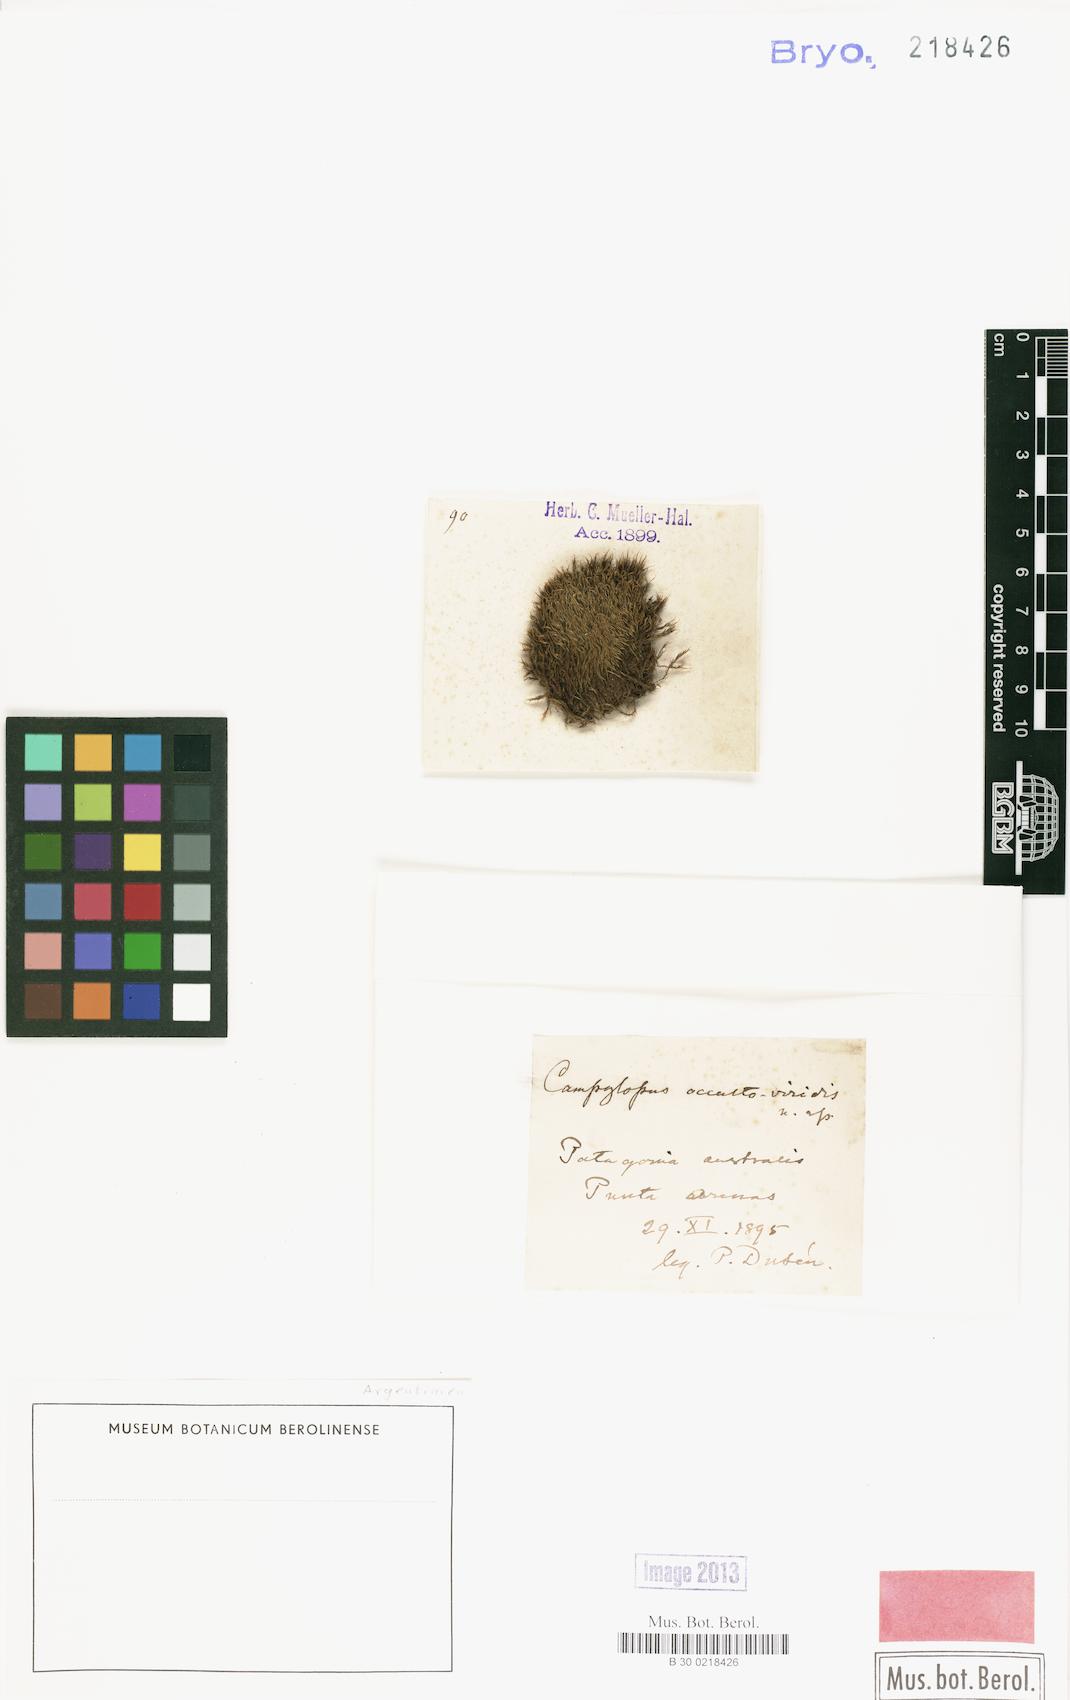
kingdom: Plantae
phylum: Bryophyta
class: Bryopsida
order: Dicranales
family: Dicranaceae
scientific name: Dicranaceae
